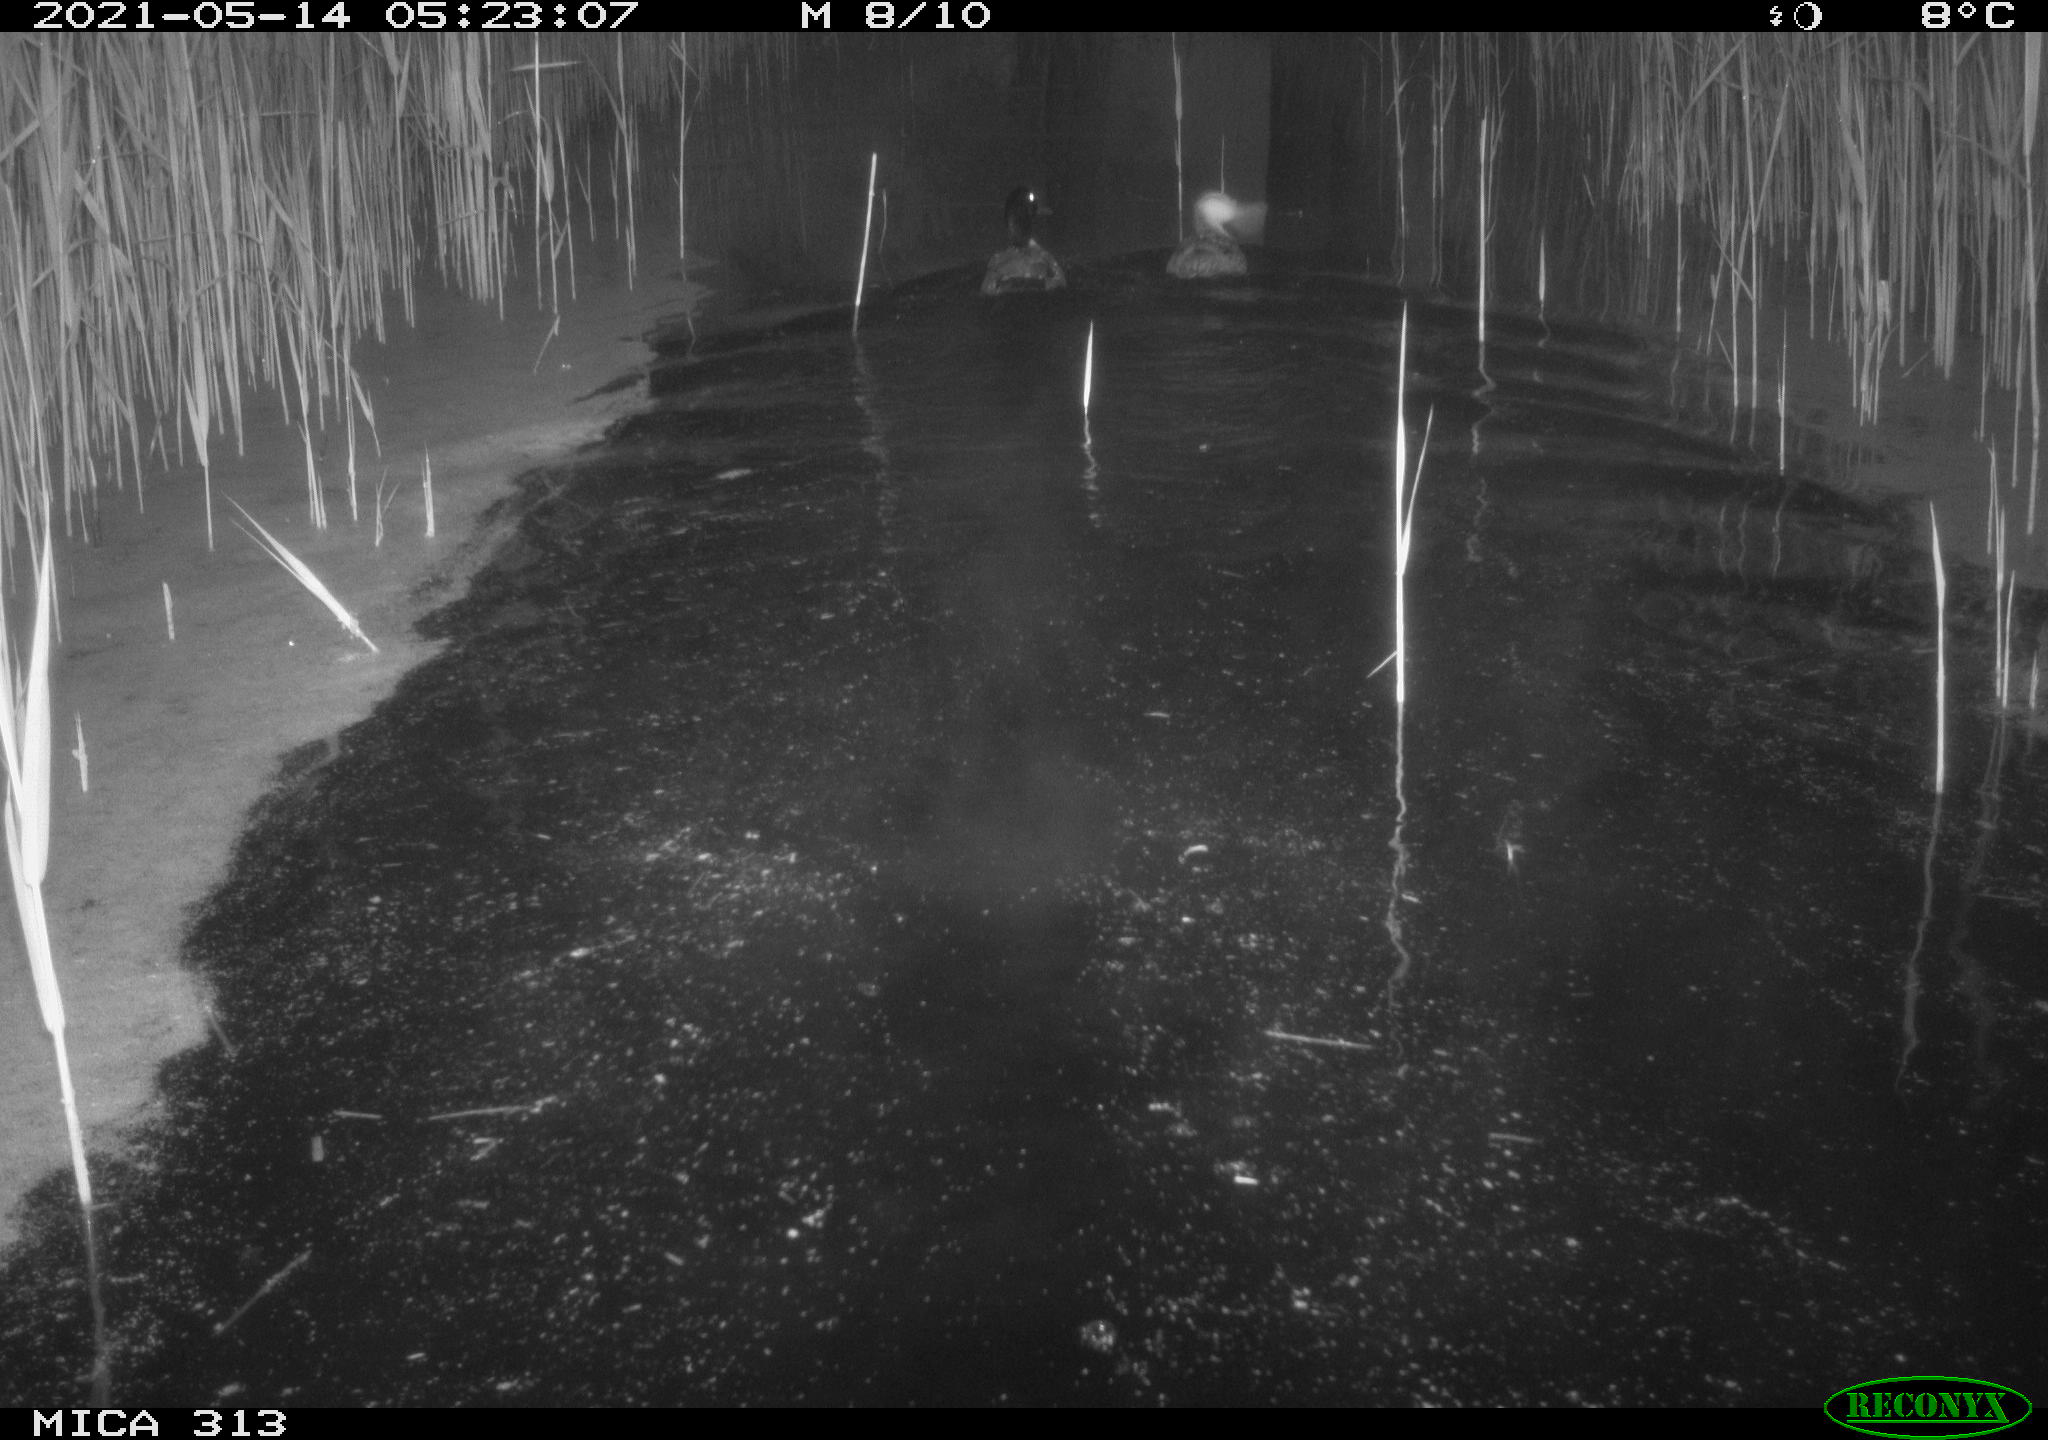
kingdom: Animalia
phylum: Chordata
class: Aves
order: Anseriformes
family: Anatidae
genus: Anas
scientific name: Anas platyrhynchos
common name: Mallard
